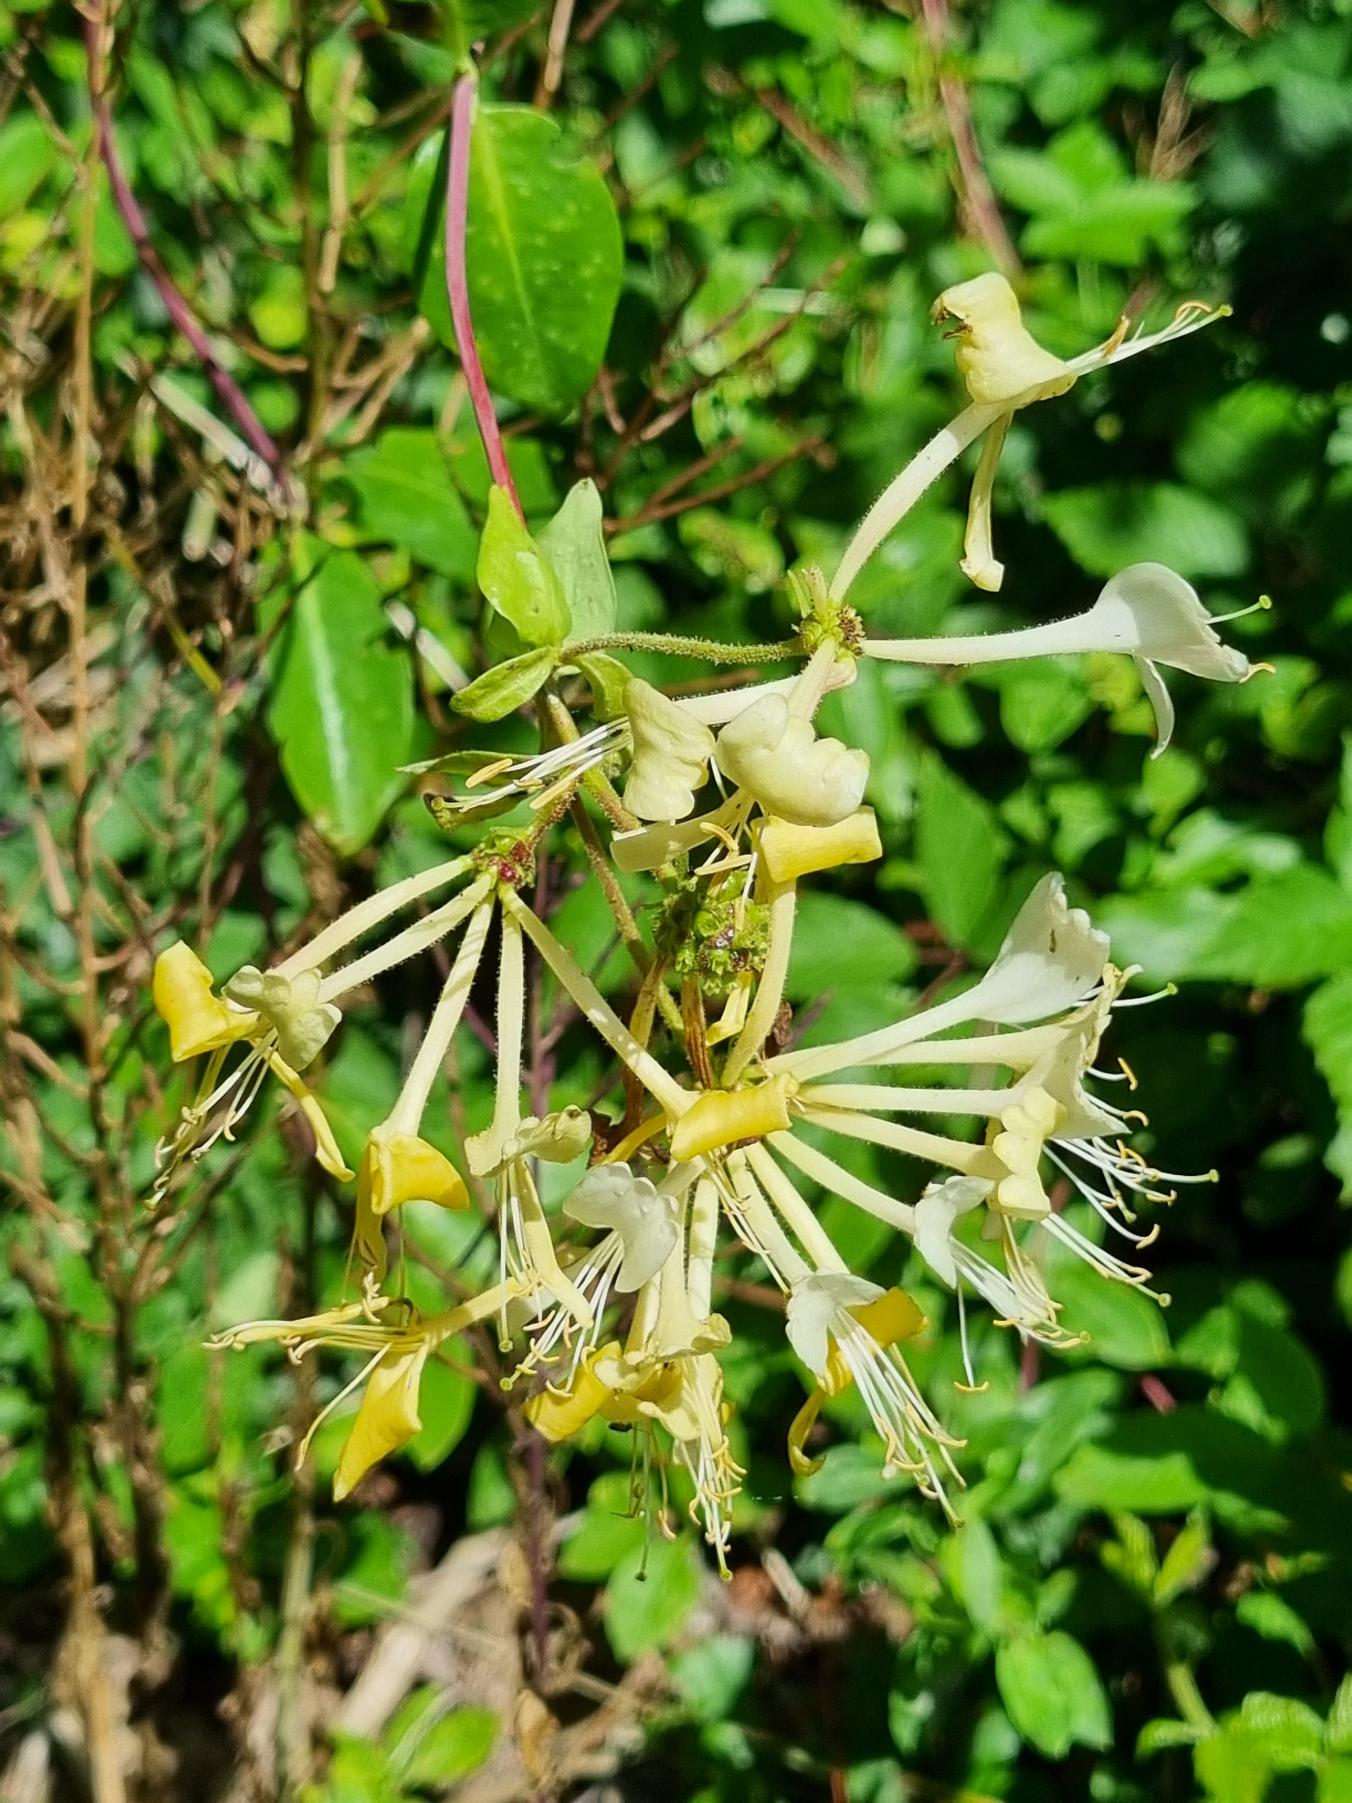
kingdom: Plantae
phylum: Tracheophyta
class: Magnoliopsida
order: Dipsacales
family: Caprifoliaceae
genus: Lonicera
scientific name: Lonicera periclymenum
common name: Almindelig gedeblad
